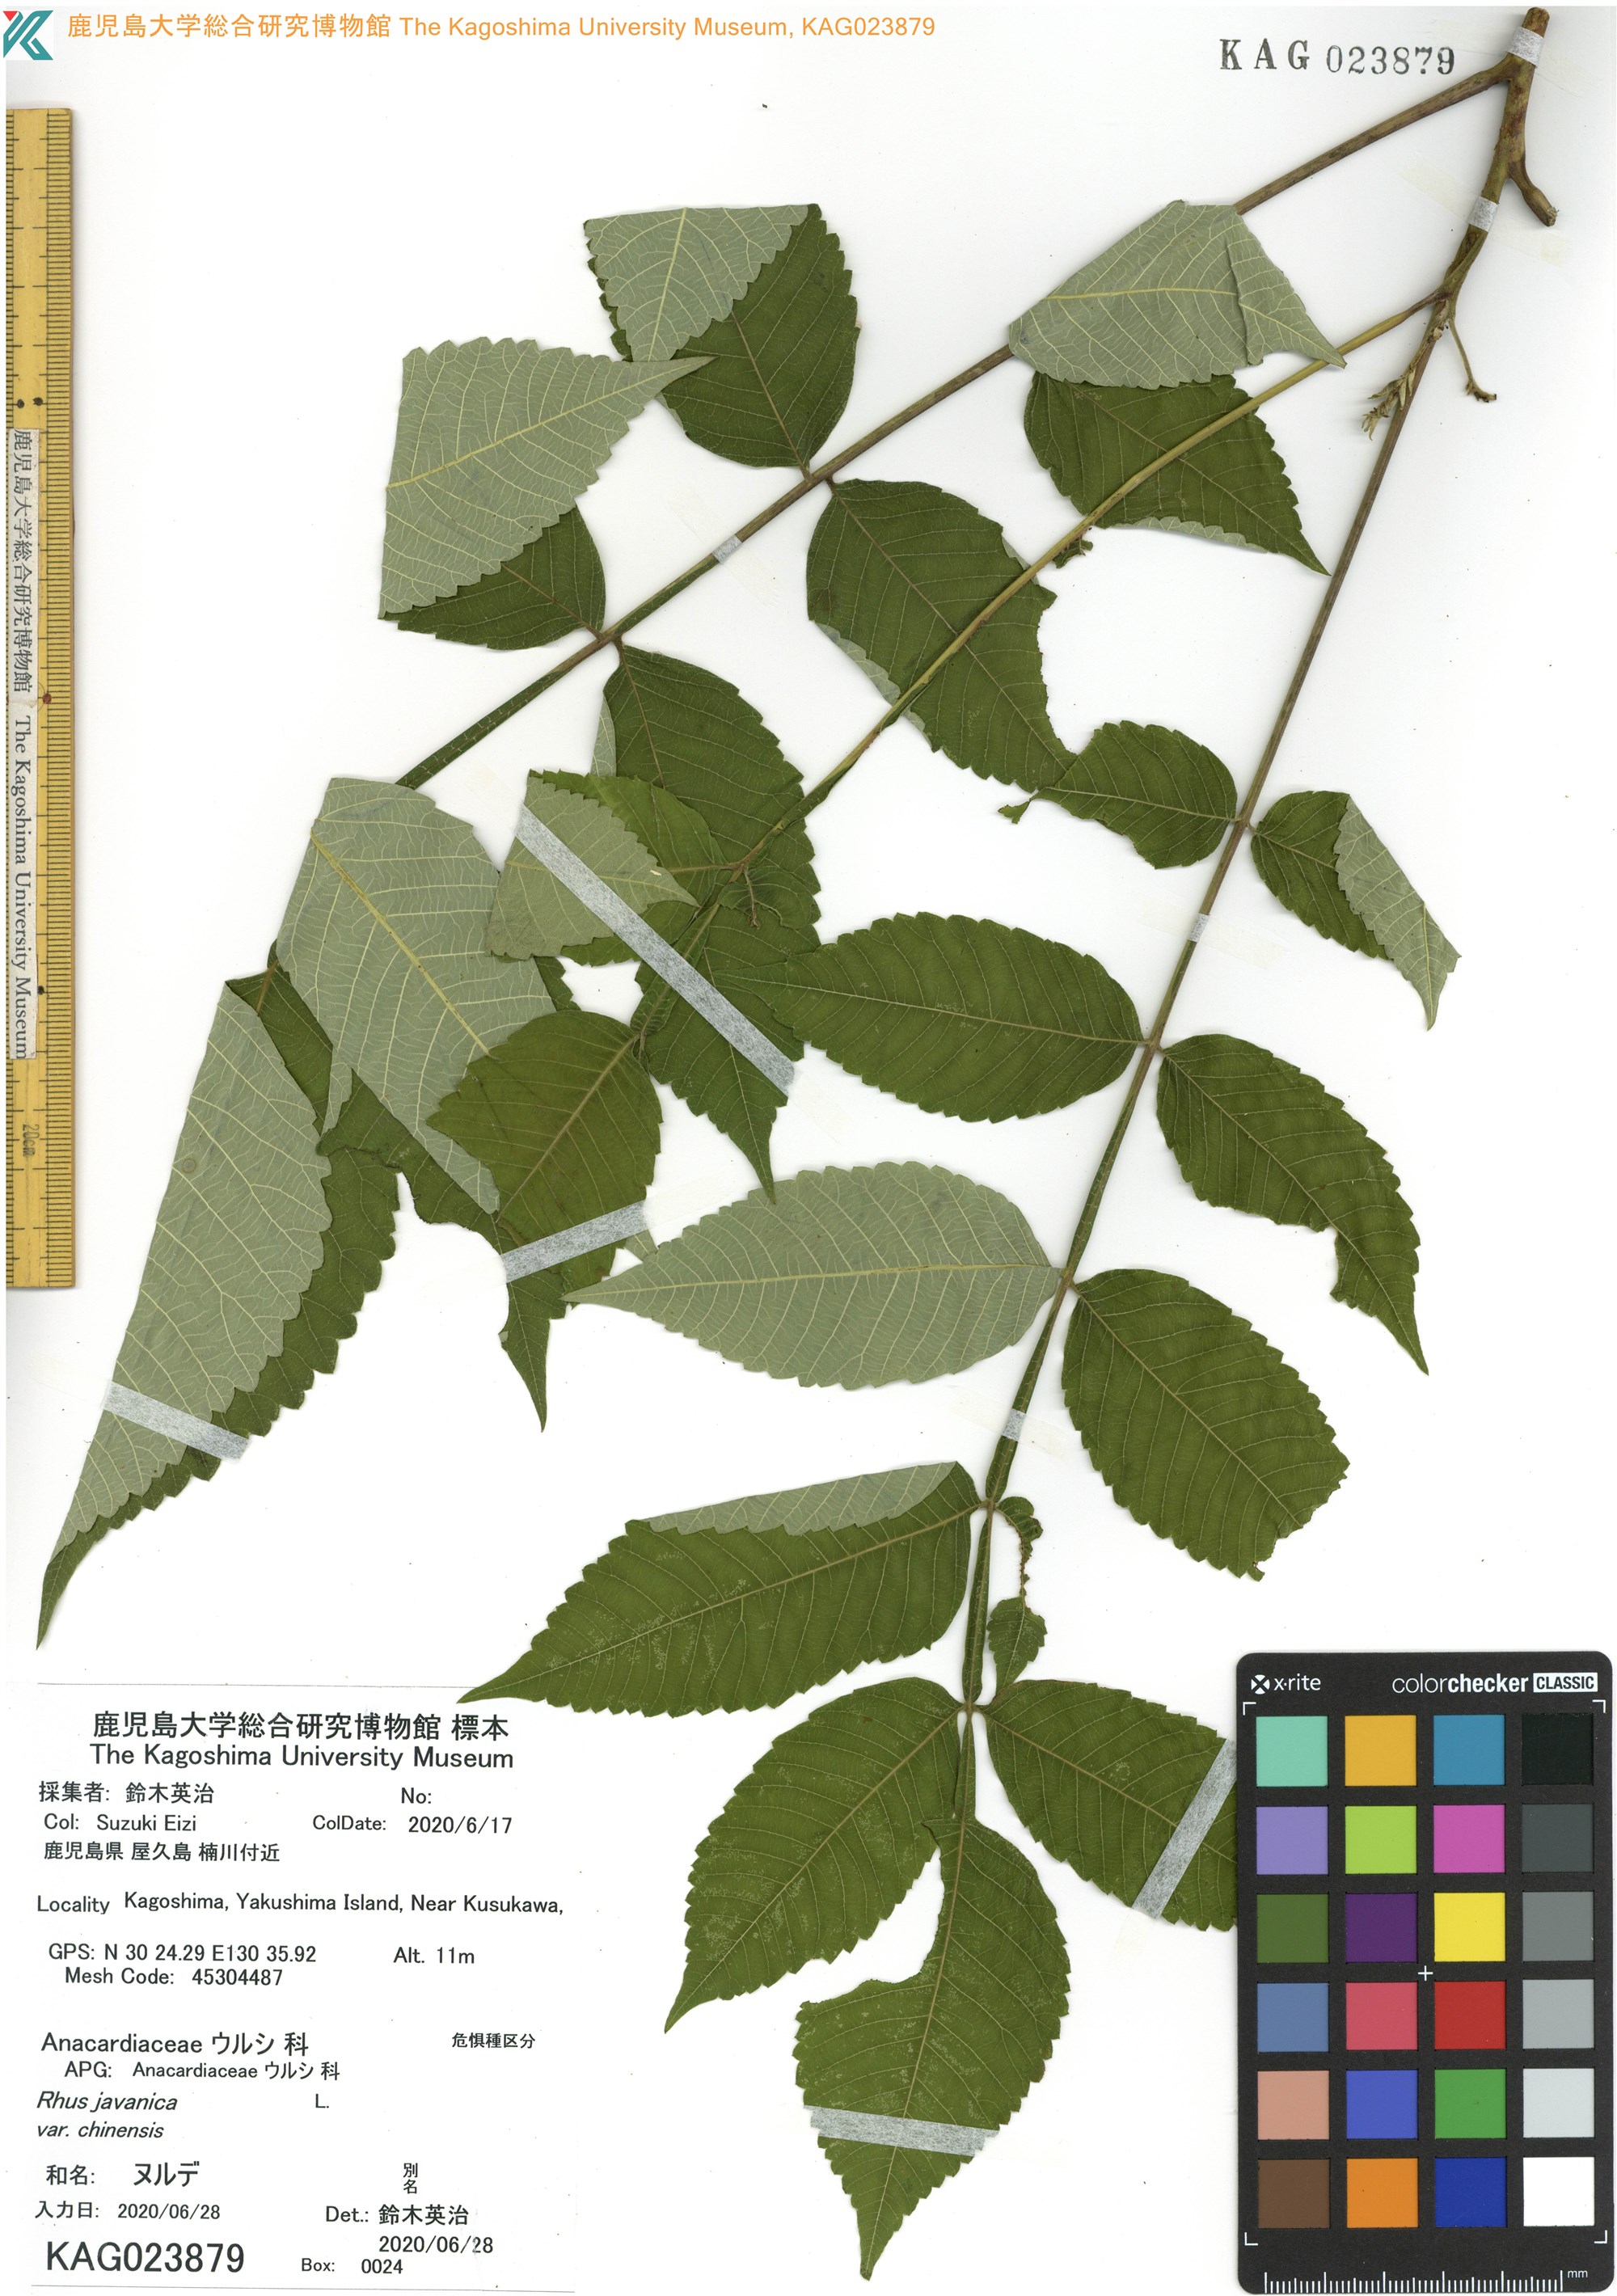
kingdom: Plantae
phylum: Tracheophyta
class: Magnoliopsida
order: Sapindales
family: Anacardiaceae
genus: Rhus
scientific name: Rhus chinensis
